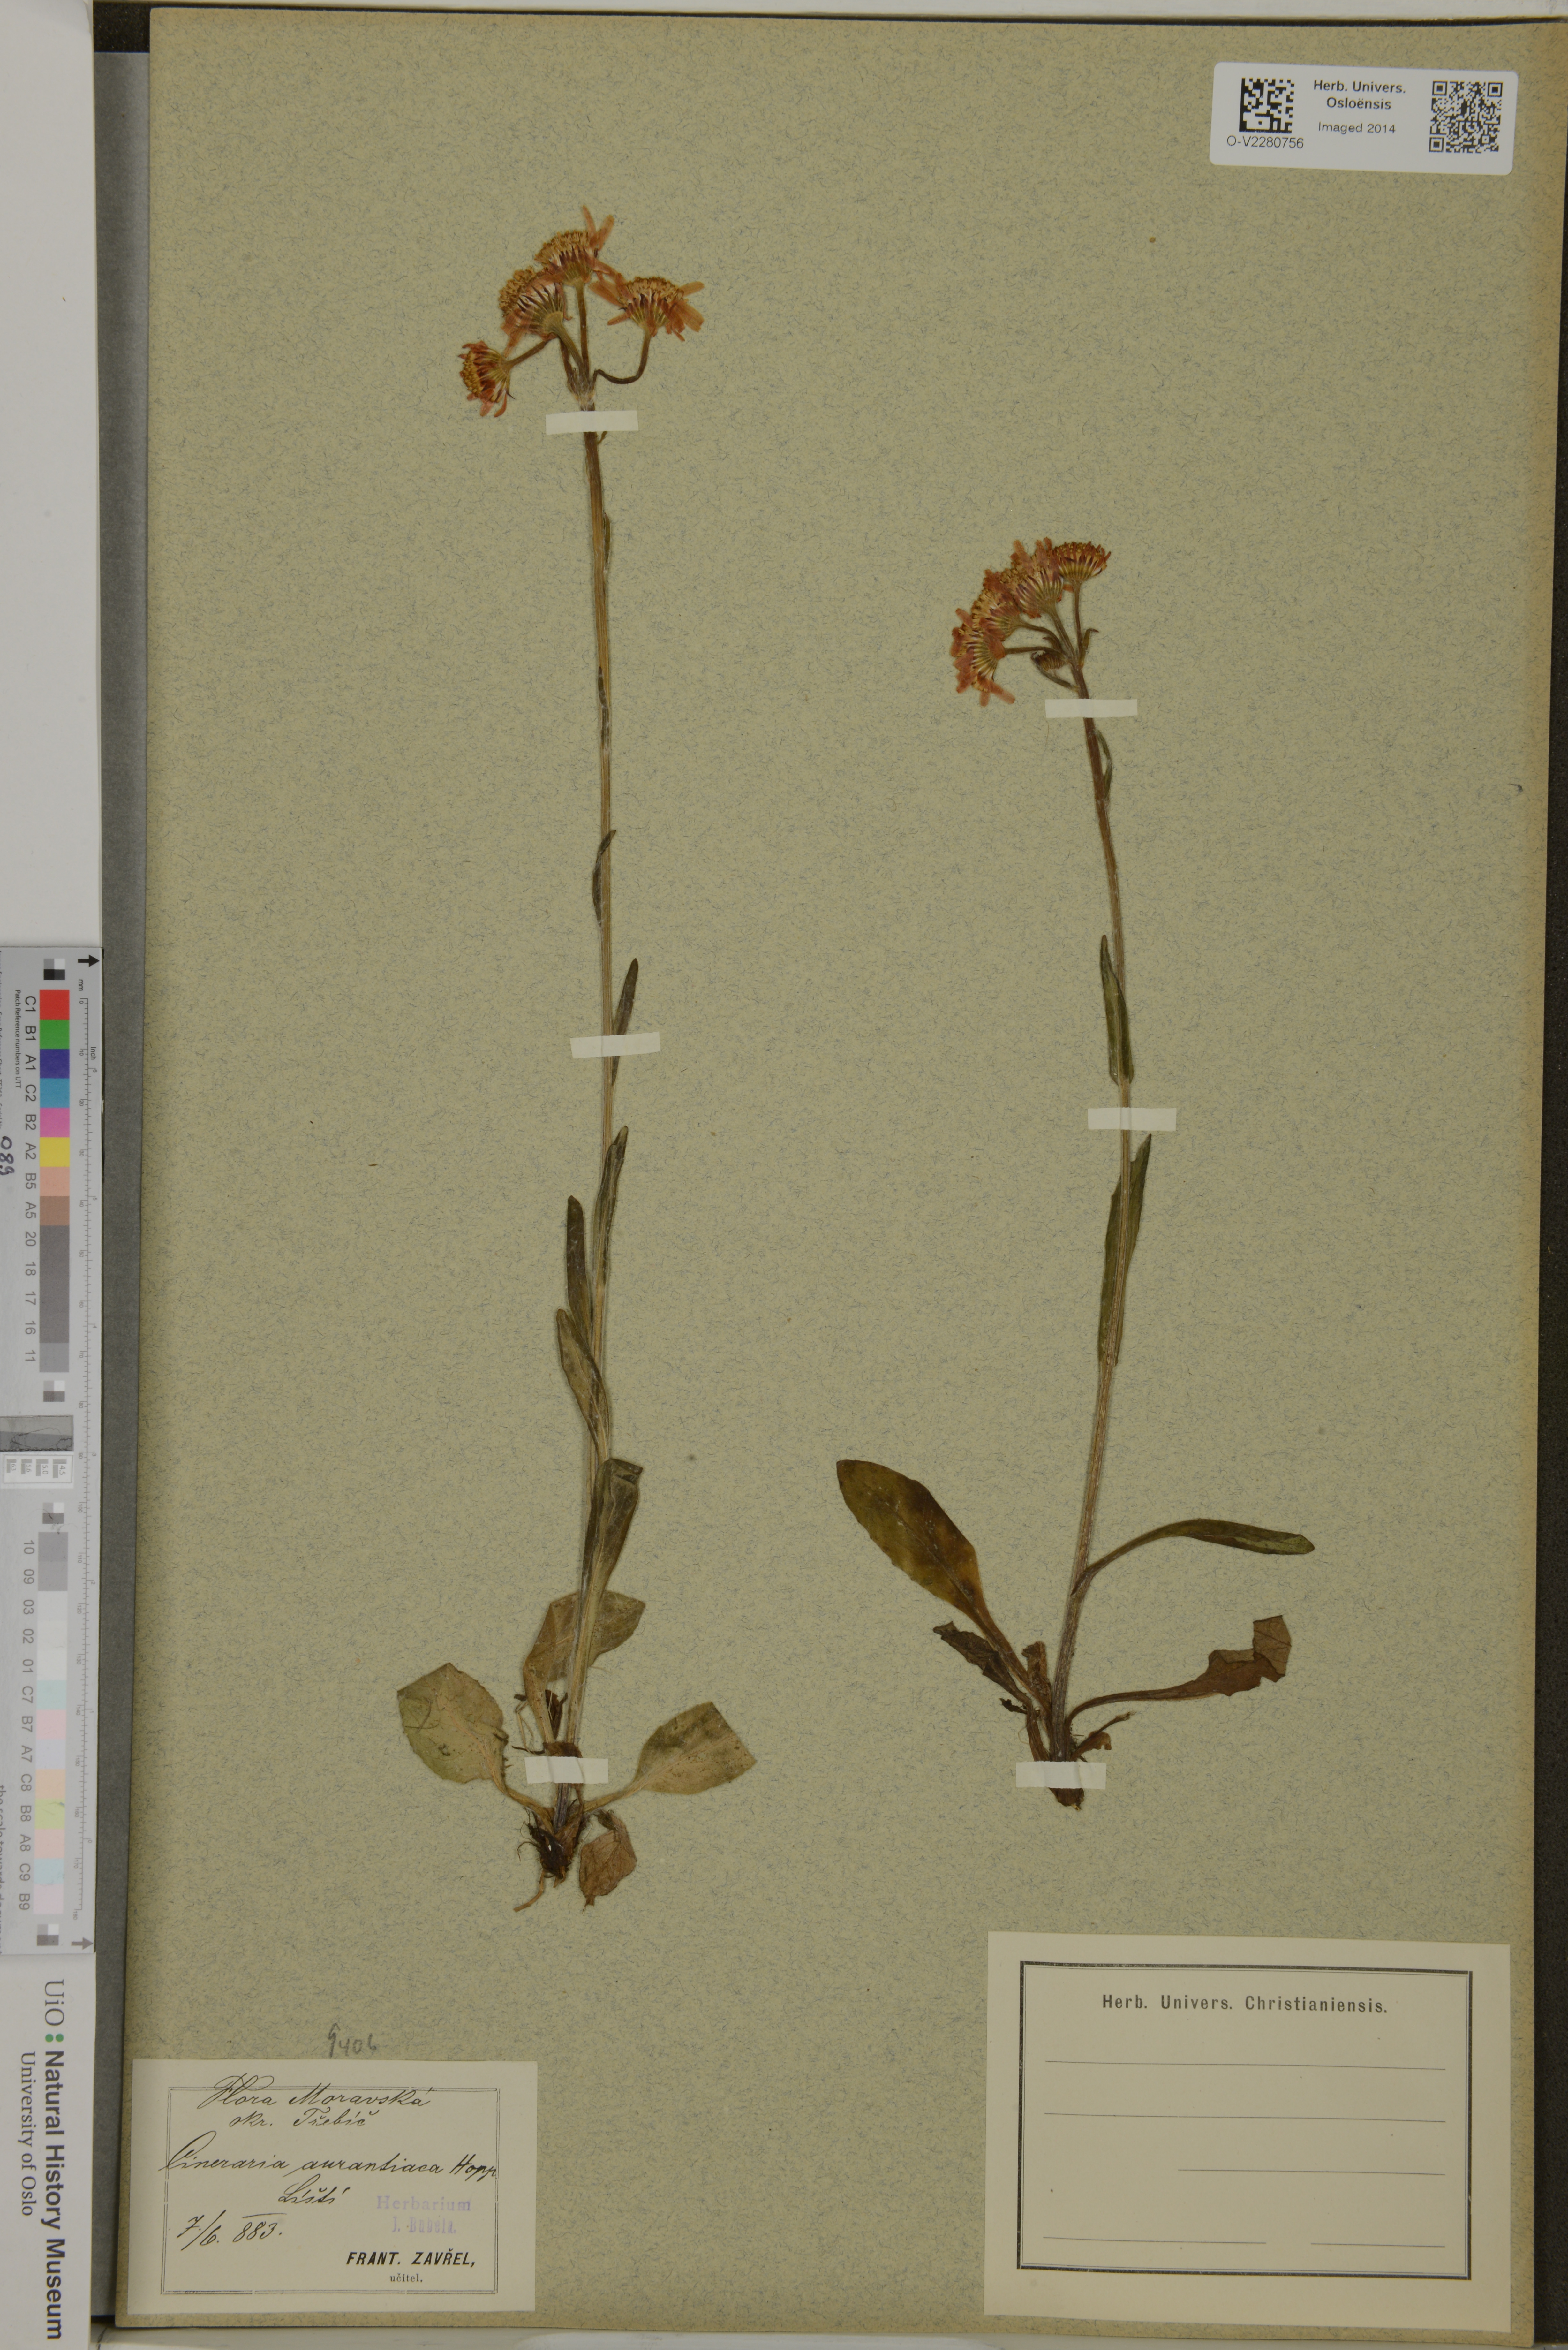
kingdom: Plantae
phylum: Tracheophyta
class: Magnoliopsida
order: Asterales
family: Asteraceae
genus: Tephroseris
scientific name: Tephroseris aurantiaca
